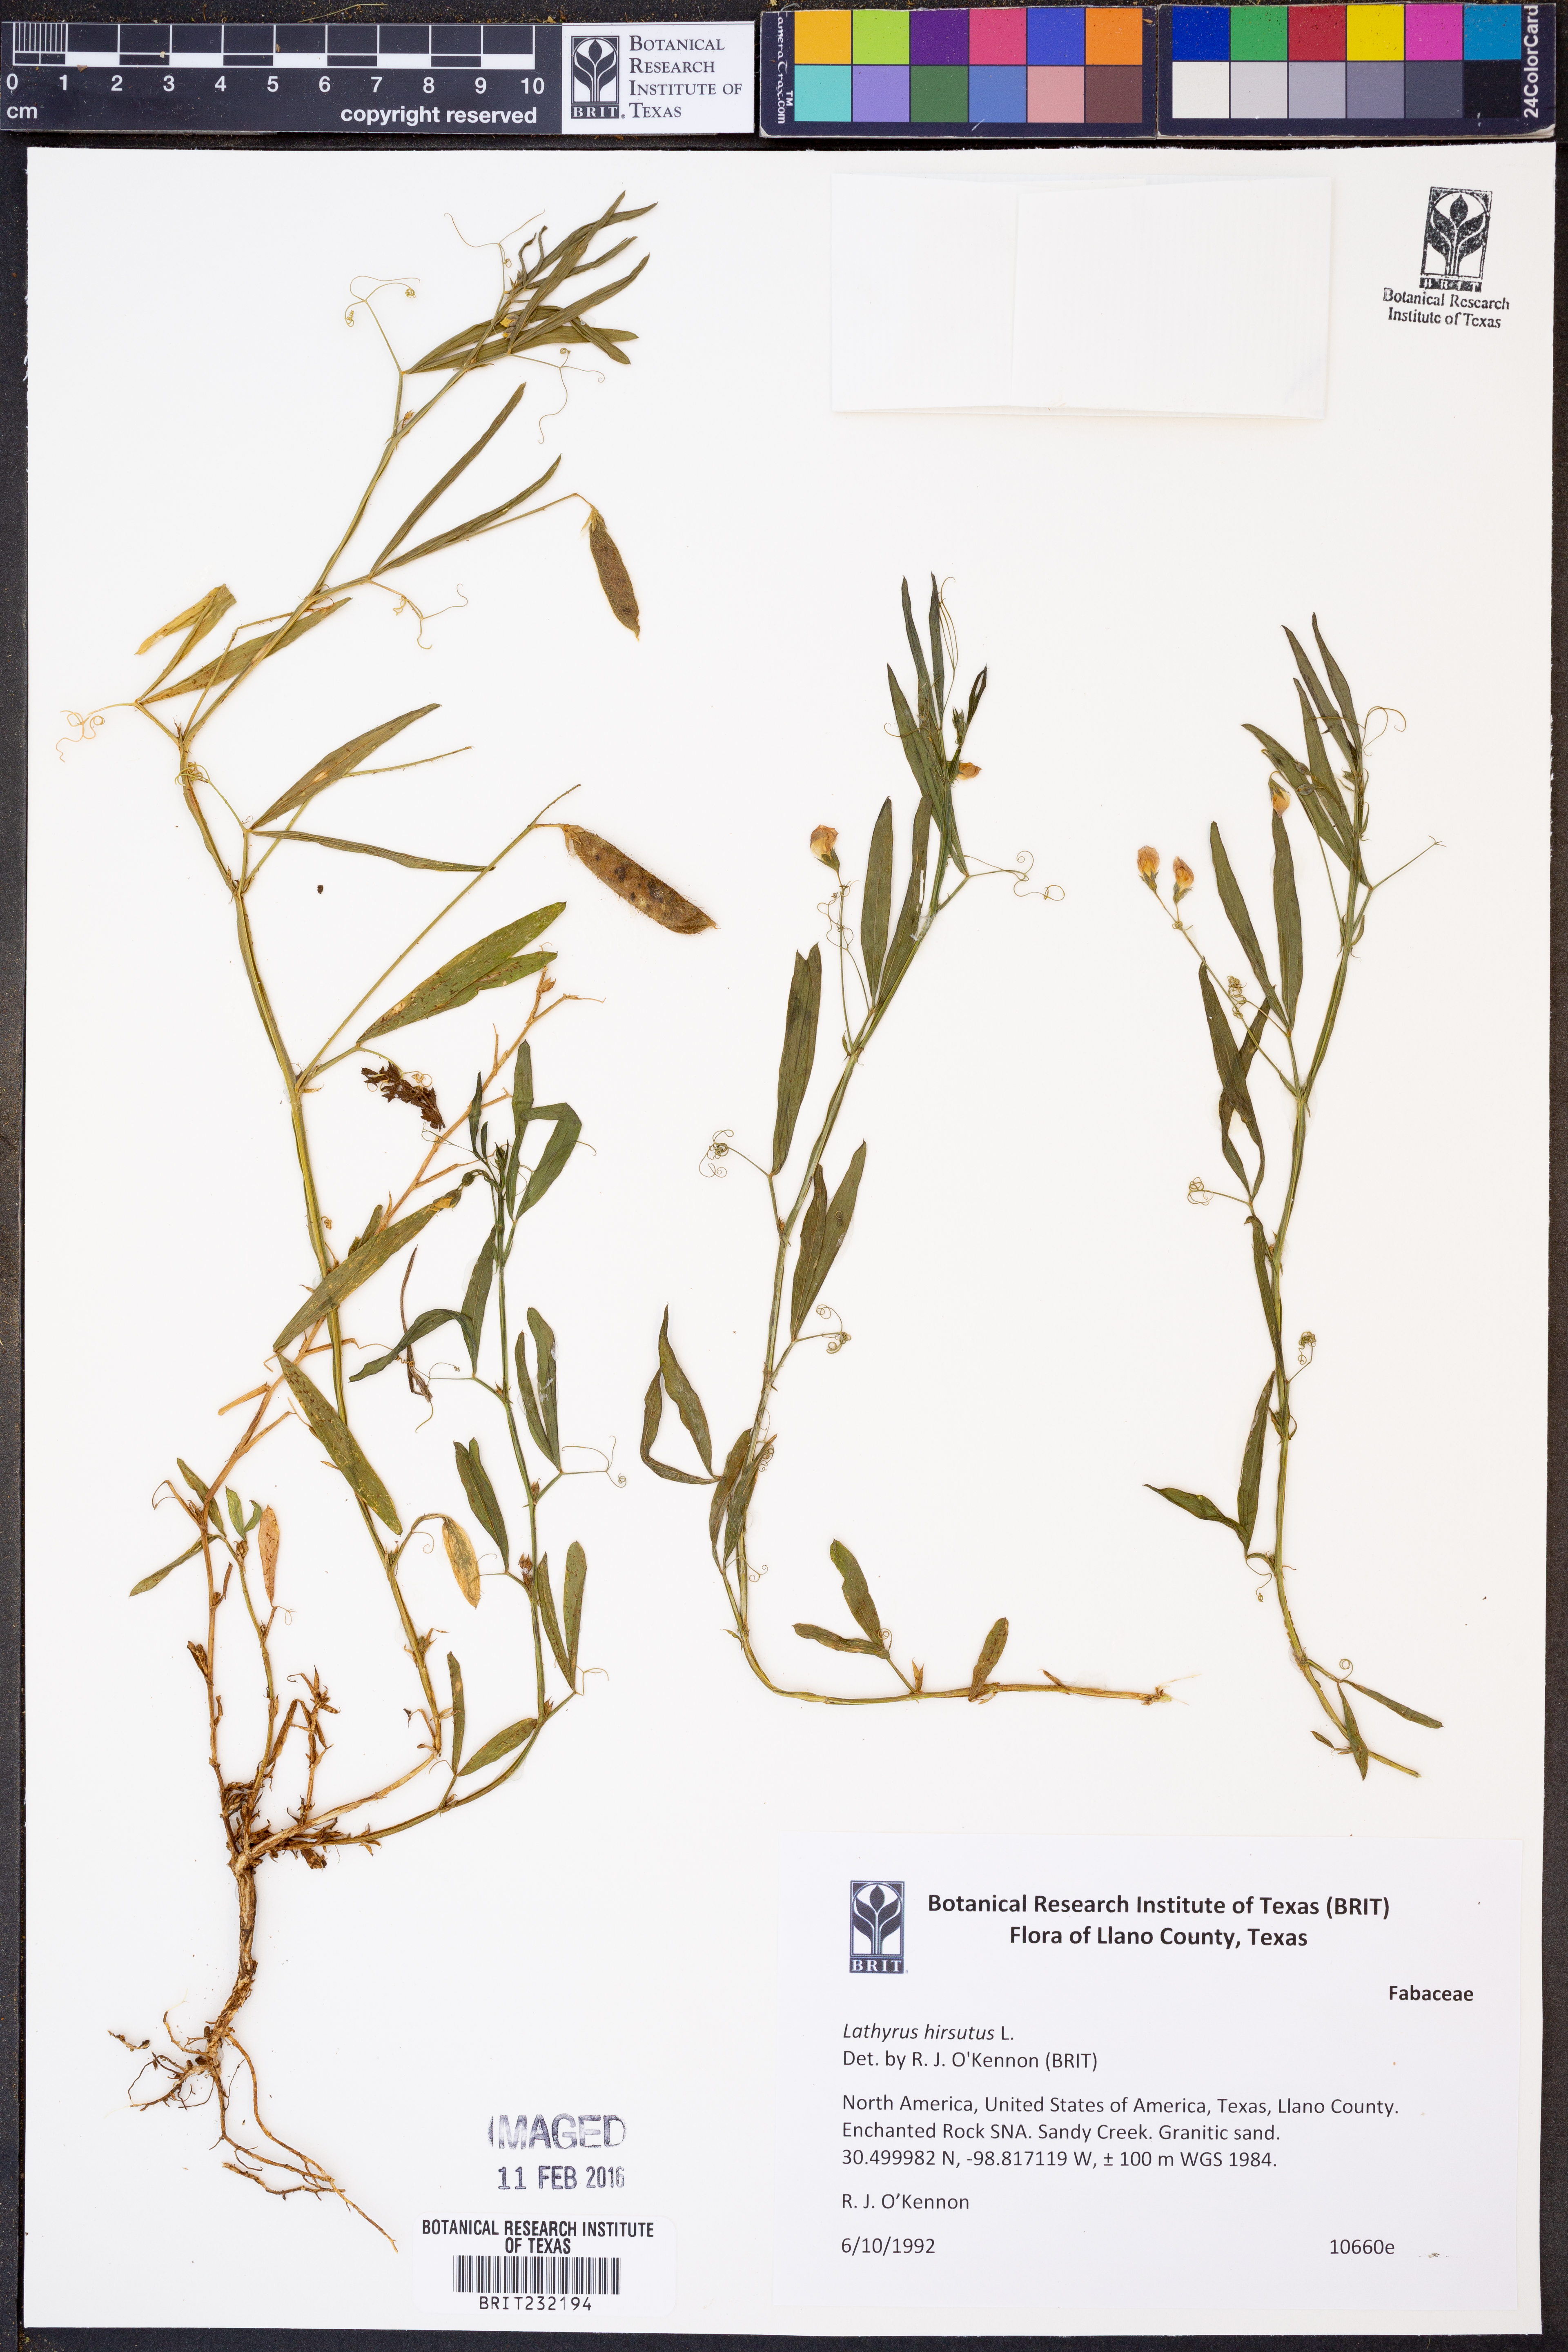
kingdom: Plantae
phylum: Tracheophyta
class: Magnoliopsida
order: Fabales
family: Fabaceae
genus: Lathyrus
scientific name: Lathyrus hirsutus
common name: Hairy vetchling
